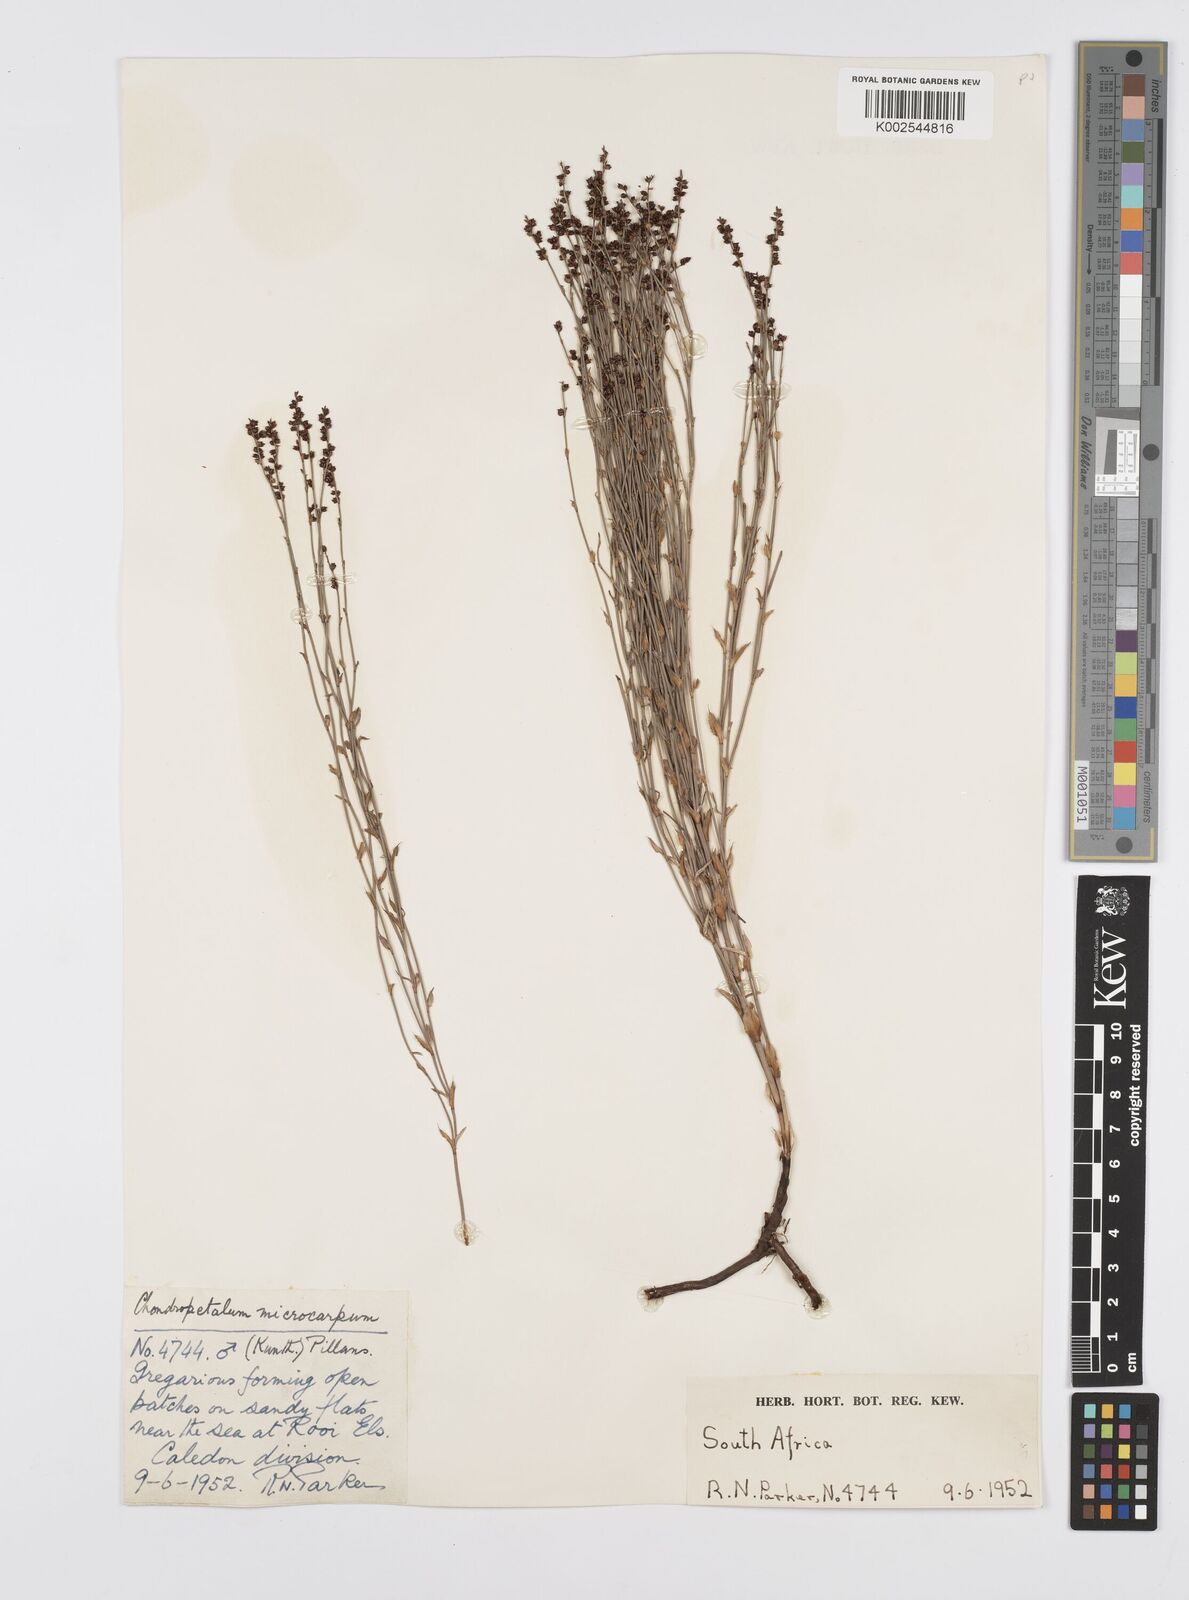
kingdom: Plantae
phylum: Tracheophyta
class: Liliopsida
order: Poales
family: Restionaceae
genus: Elegia
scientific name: Elegia microcarpa
